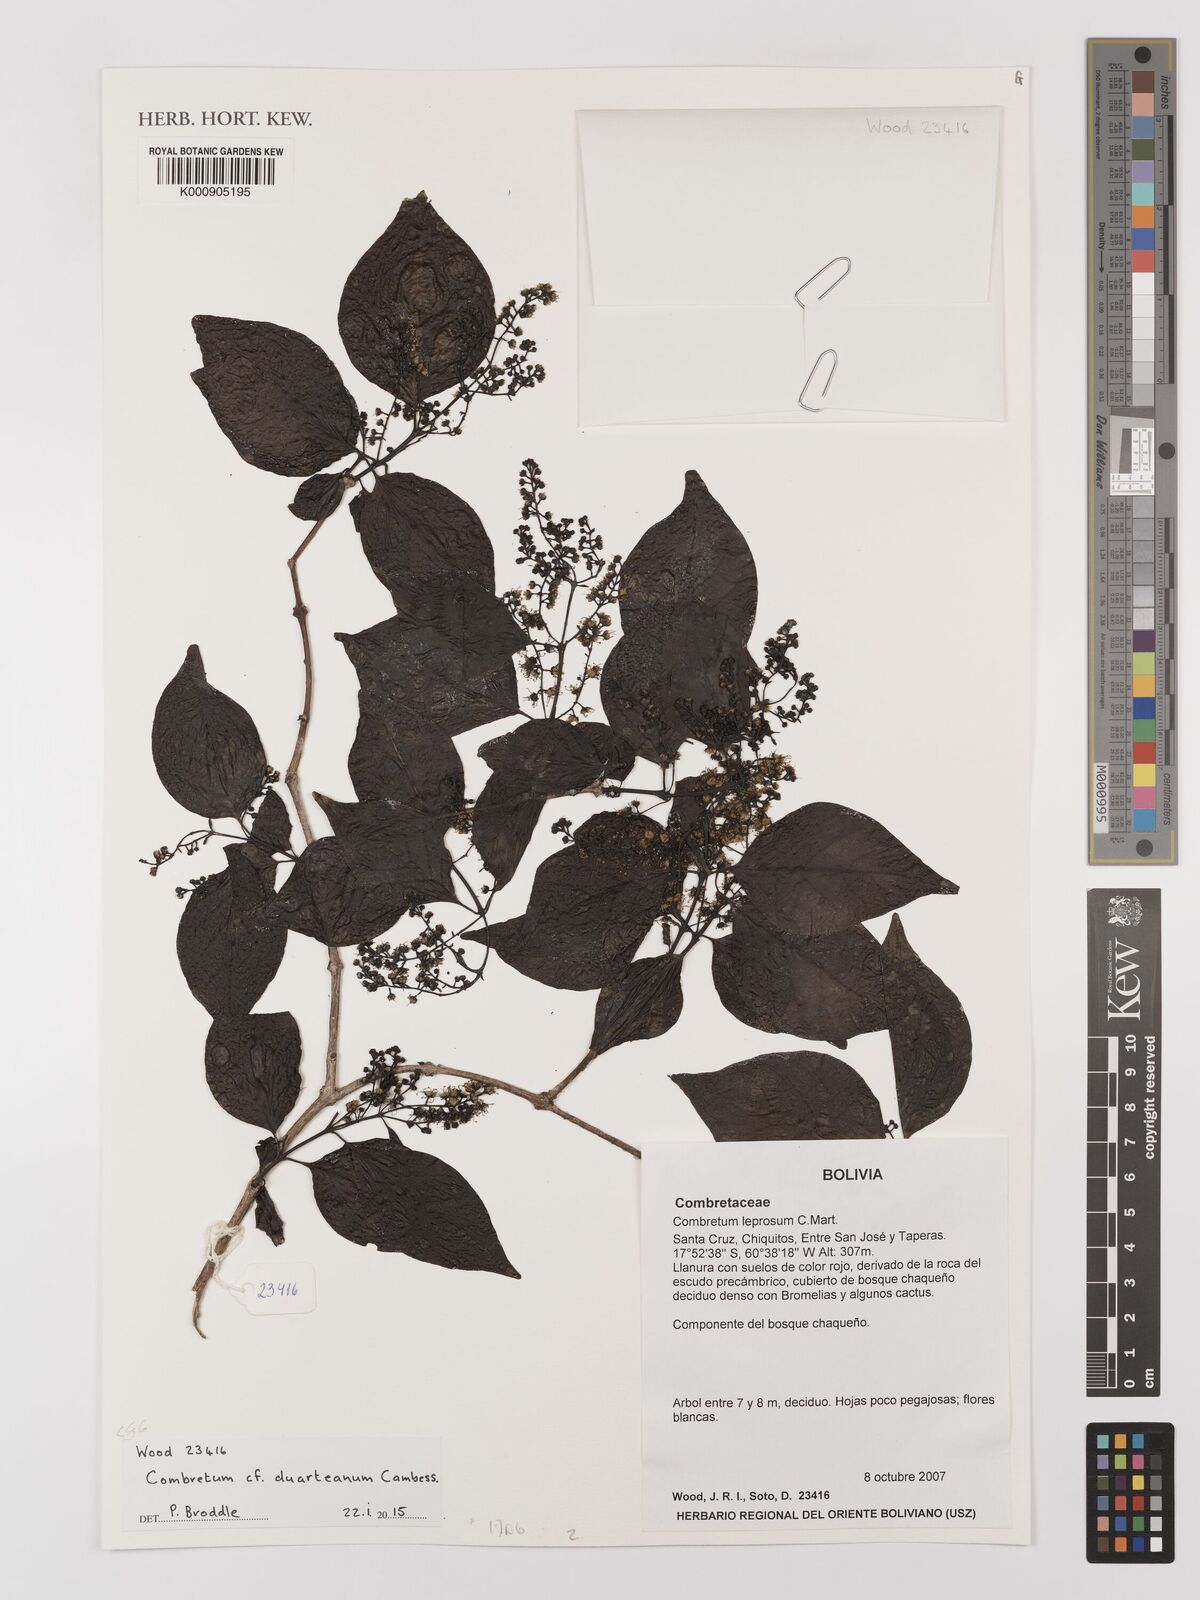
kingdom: Plantae
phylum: Tracheophyta
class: Magnoliopsida
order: Myrtales
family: Combretaceae
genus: Combretum
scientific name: Combretum duarteanum
